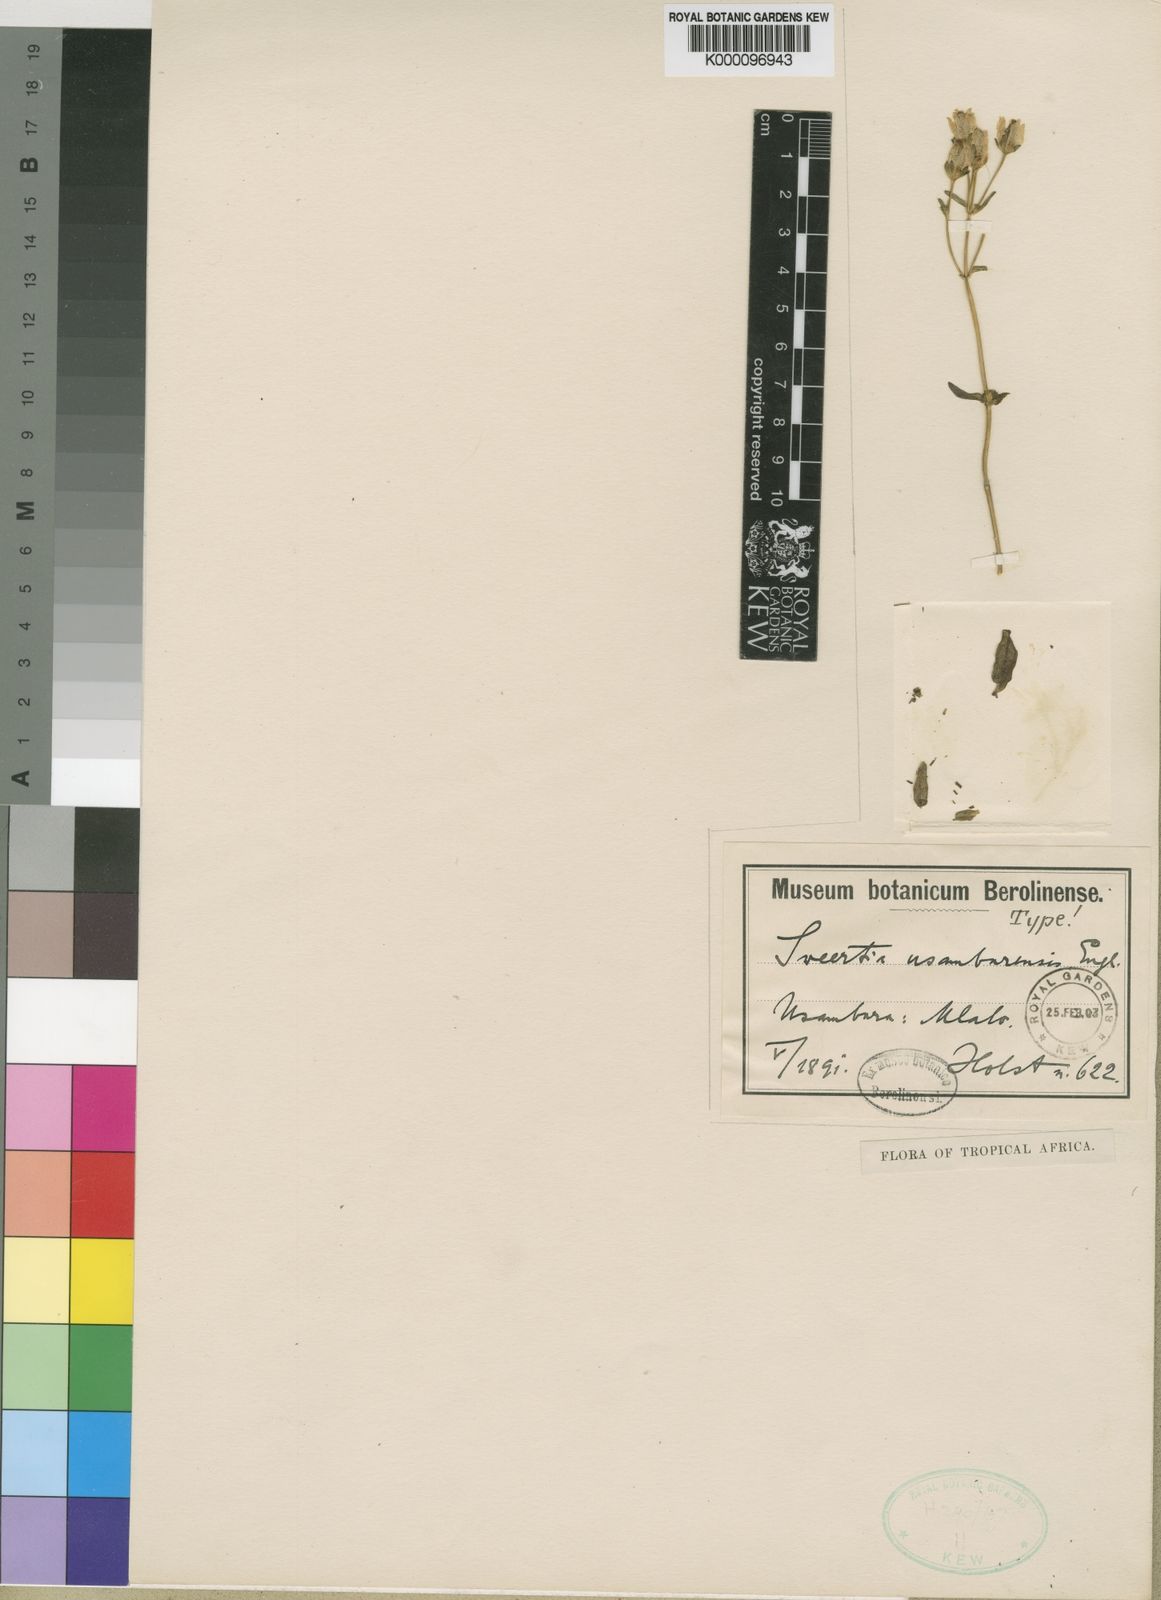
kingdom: Plantae
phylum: Tracheophyta
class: Magnoliopsida
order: Gentianales
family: Gentianaceae
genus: Swertia
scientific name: Swertia usambarensis
